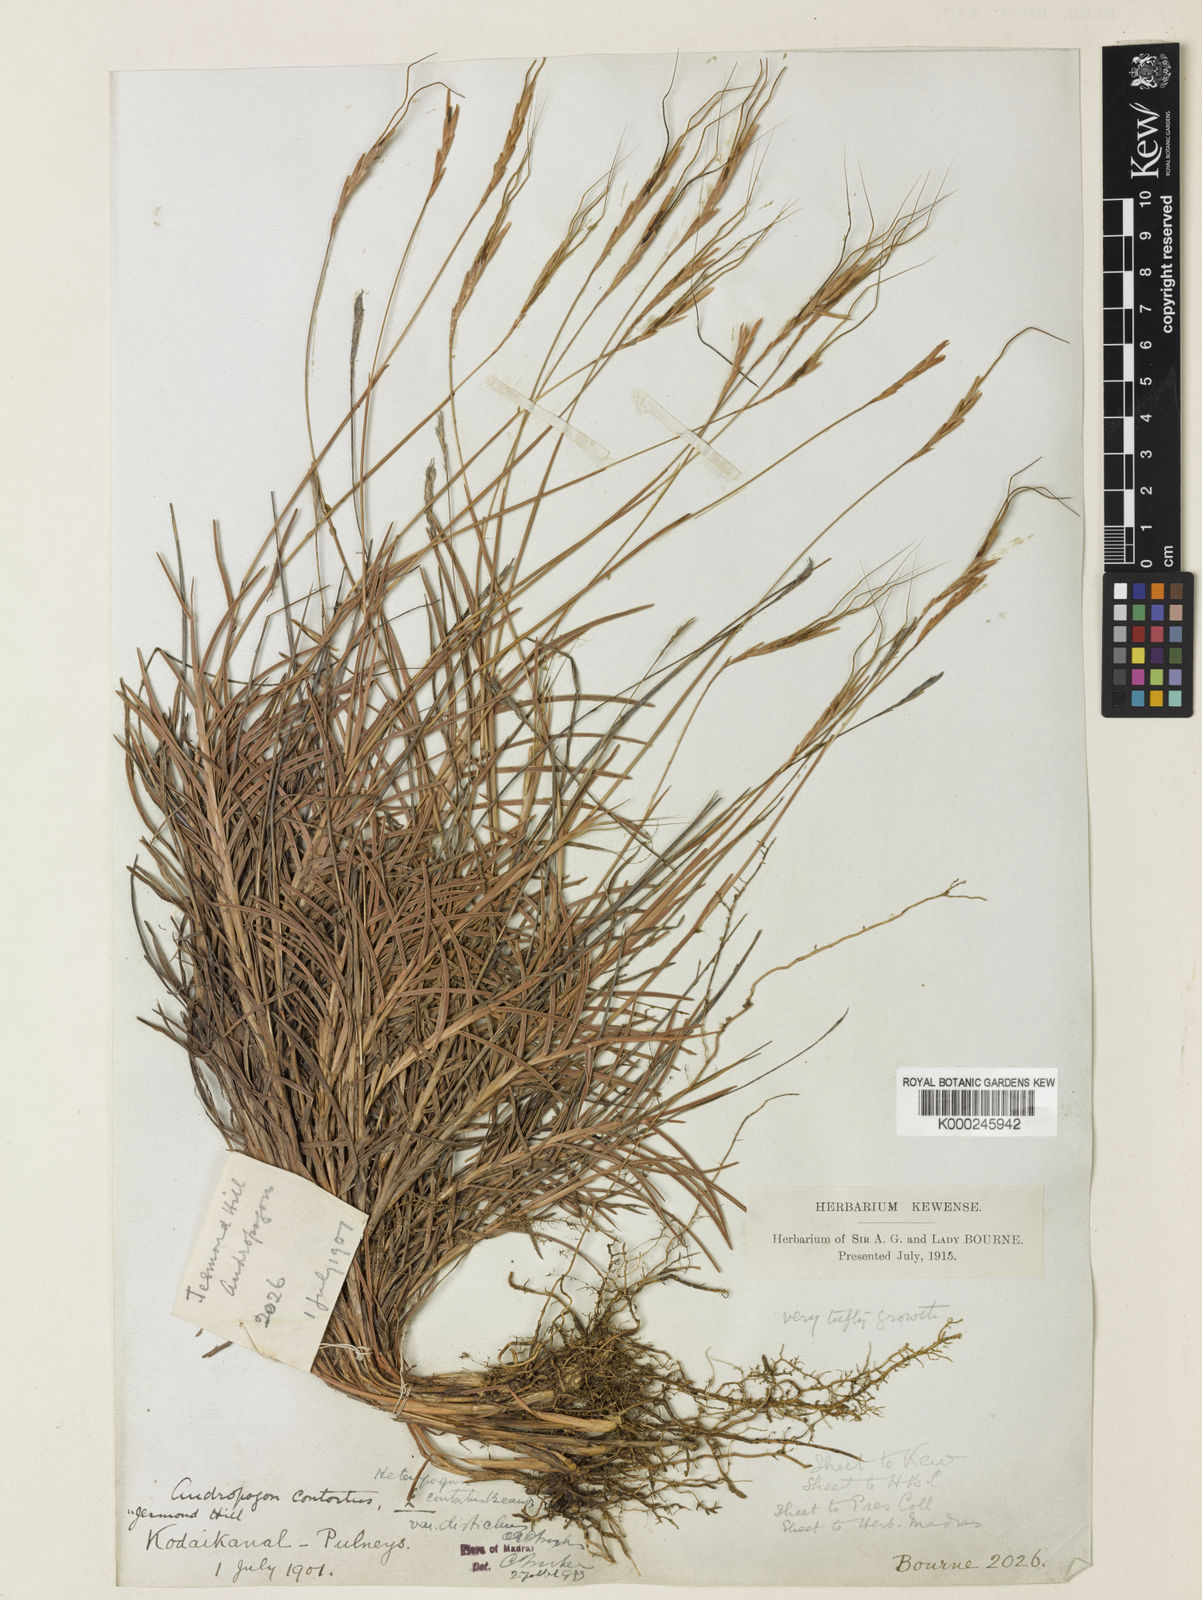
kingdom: Plantae
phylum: Tracheophyta
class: Liliopsida
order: Poales
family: Poaceae
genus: Heteropogon
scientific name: Heteropogon contortus
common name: Tanglehead
